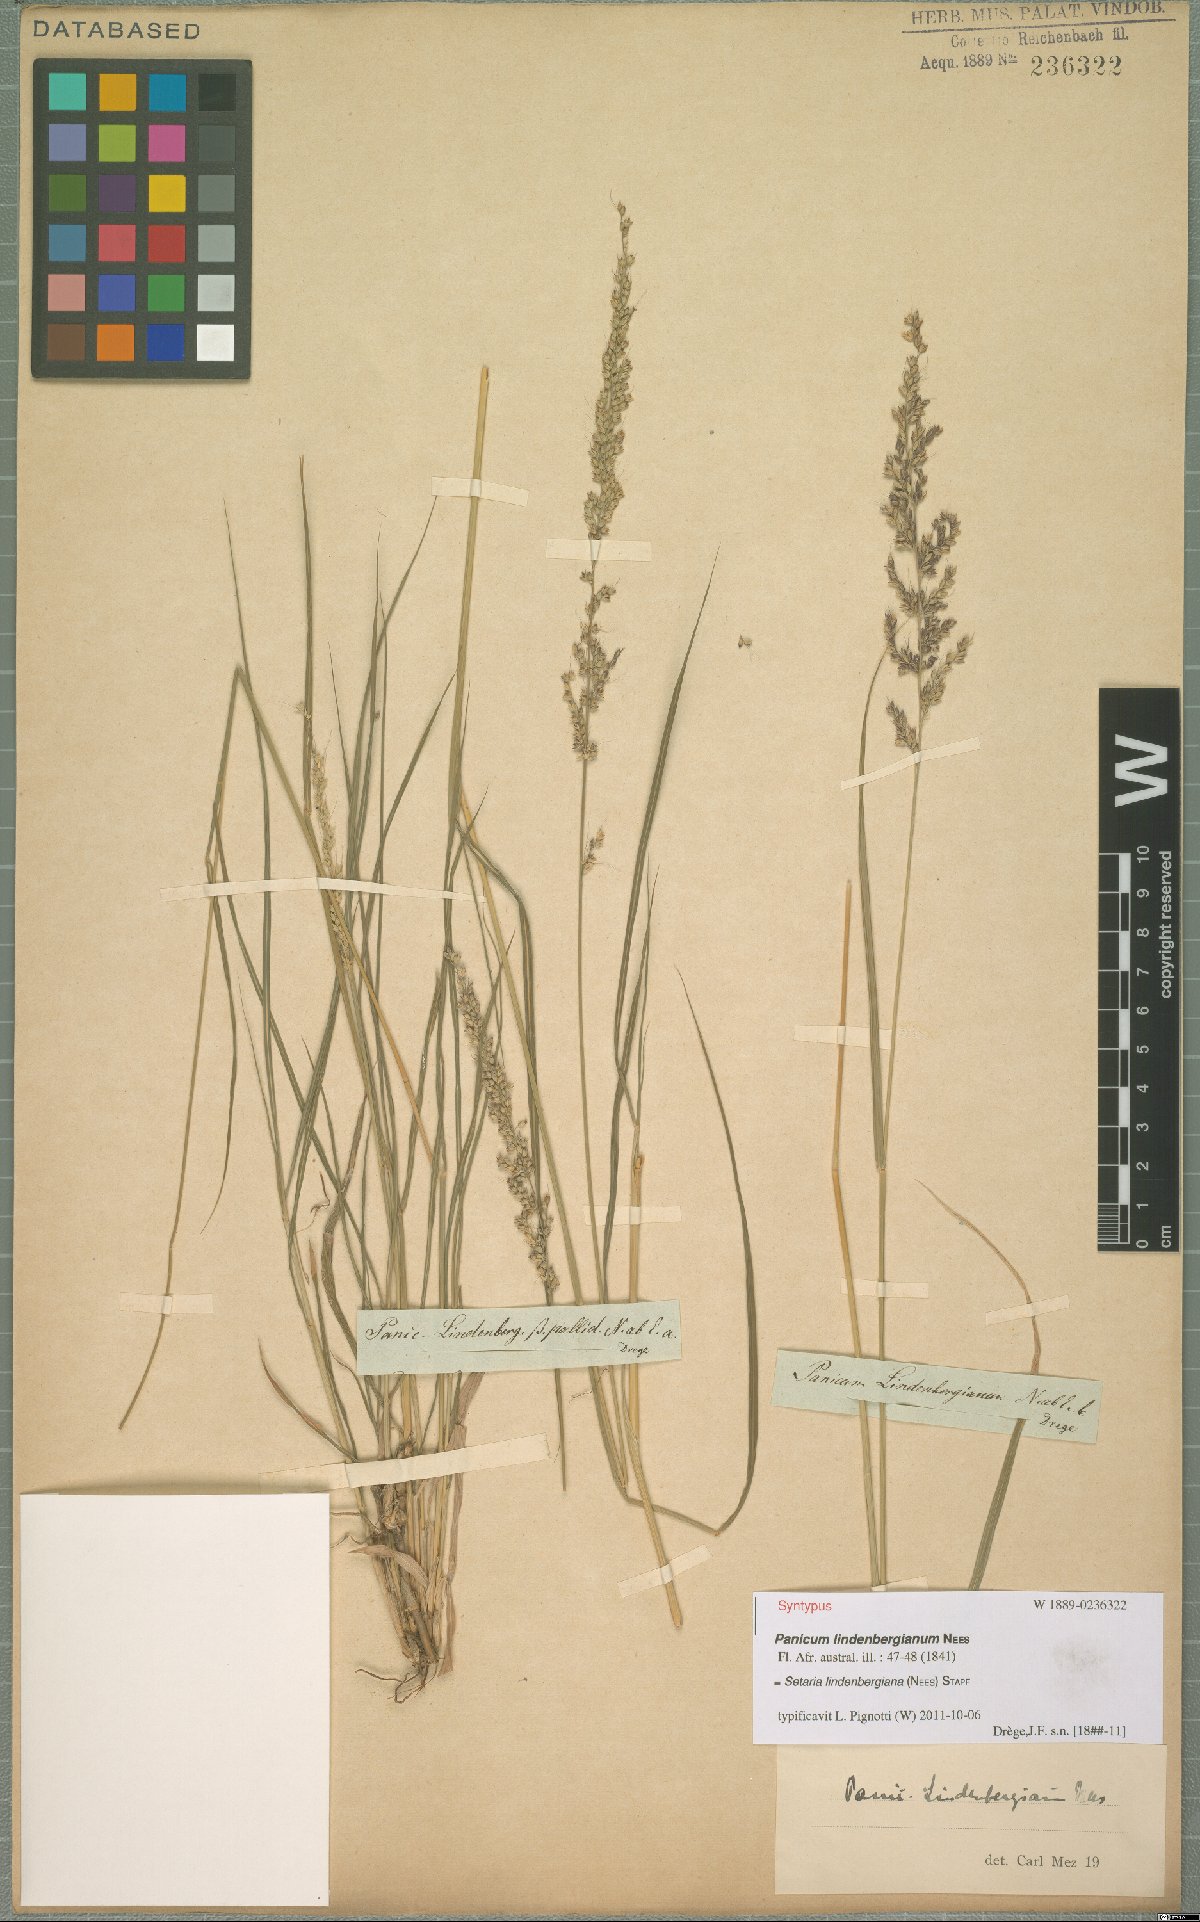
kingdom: Plantae
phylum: Tracheophyta
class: Liliopsida
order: Poales
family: Poaceae
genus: Setaria
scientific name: Setaria lindenbergiana
